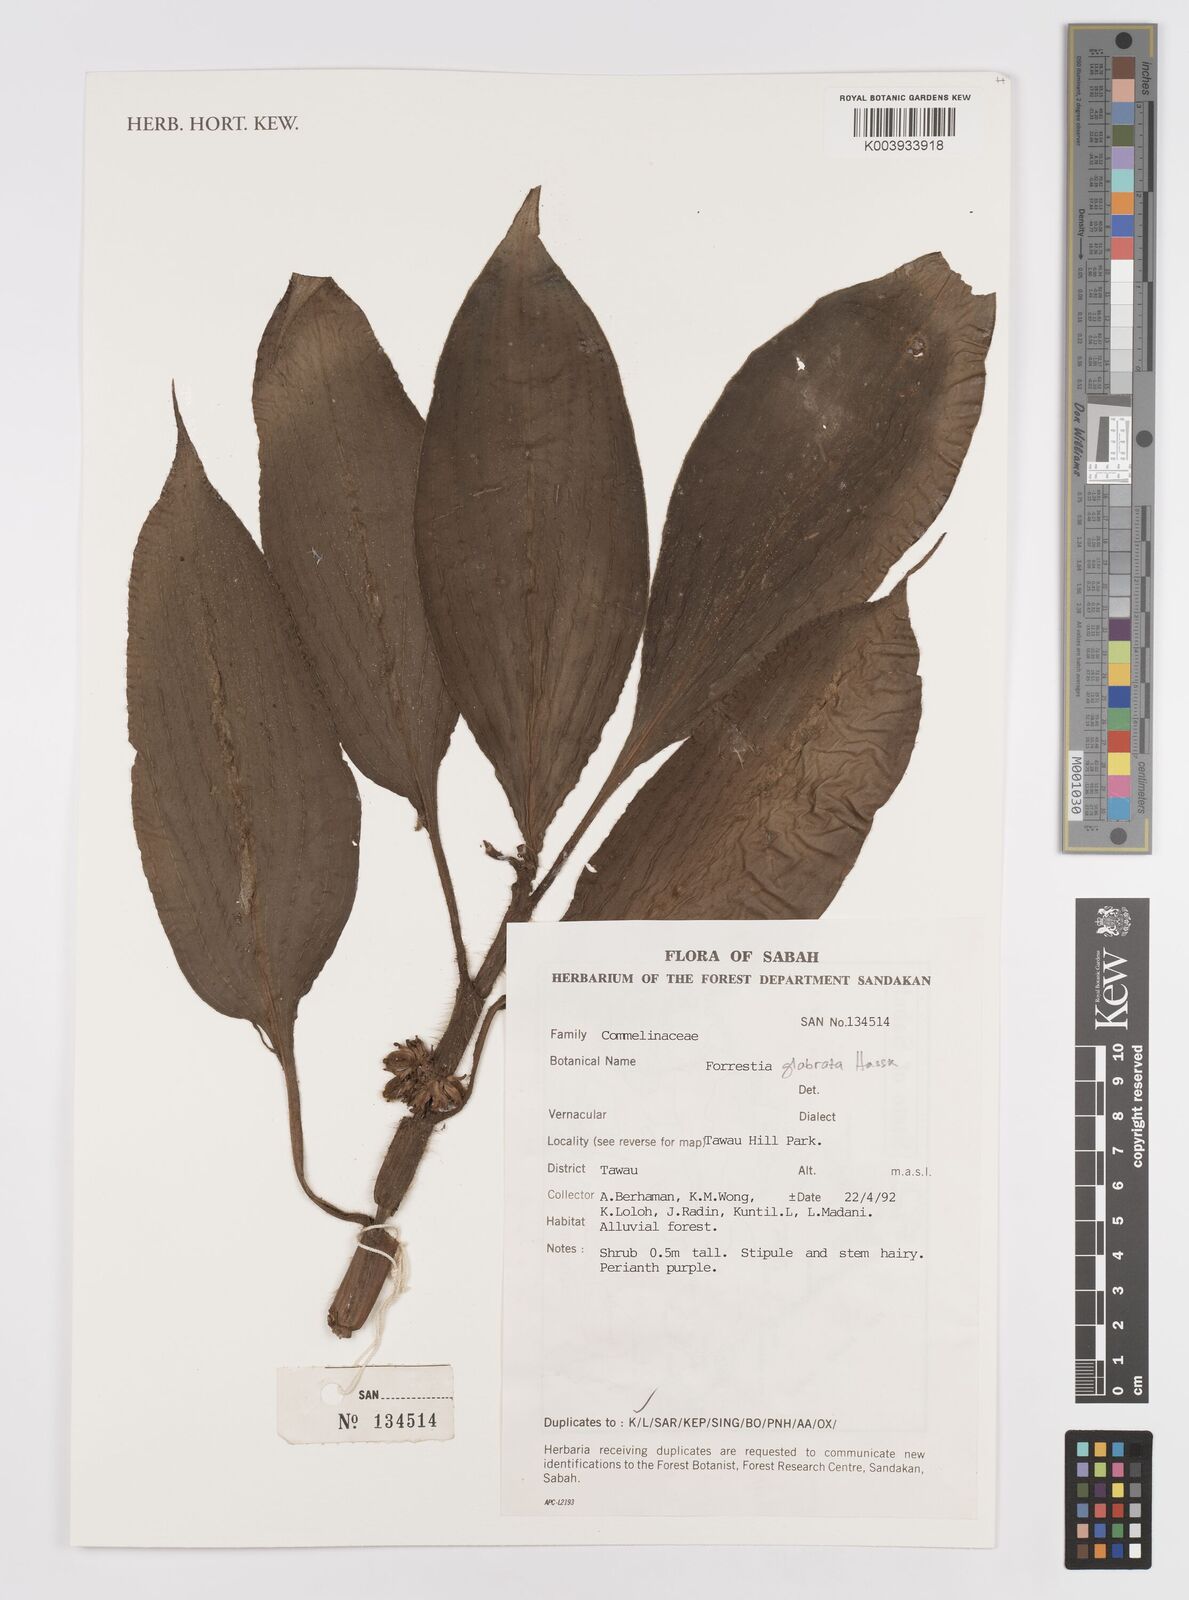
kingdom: Plantae
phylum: Tracheophyta
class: Liliopsida
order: Commelinales
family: Commelinaceae
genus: Amischotolype
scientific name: Amischotolype glabrata
